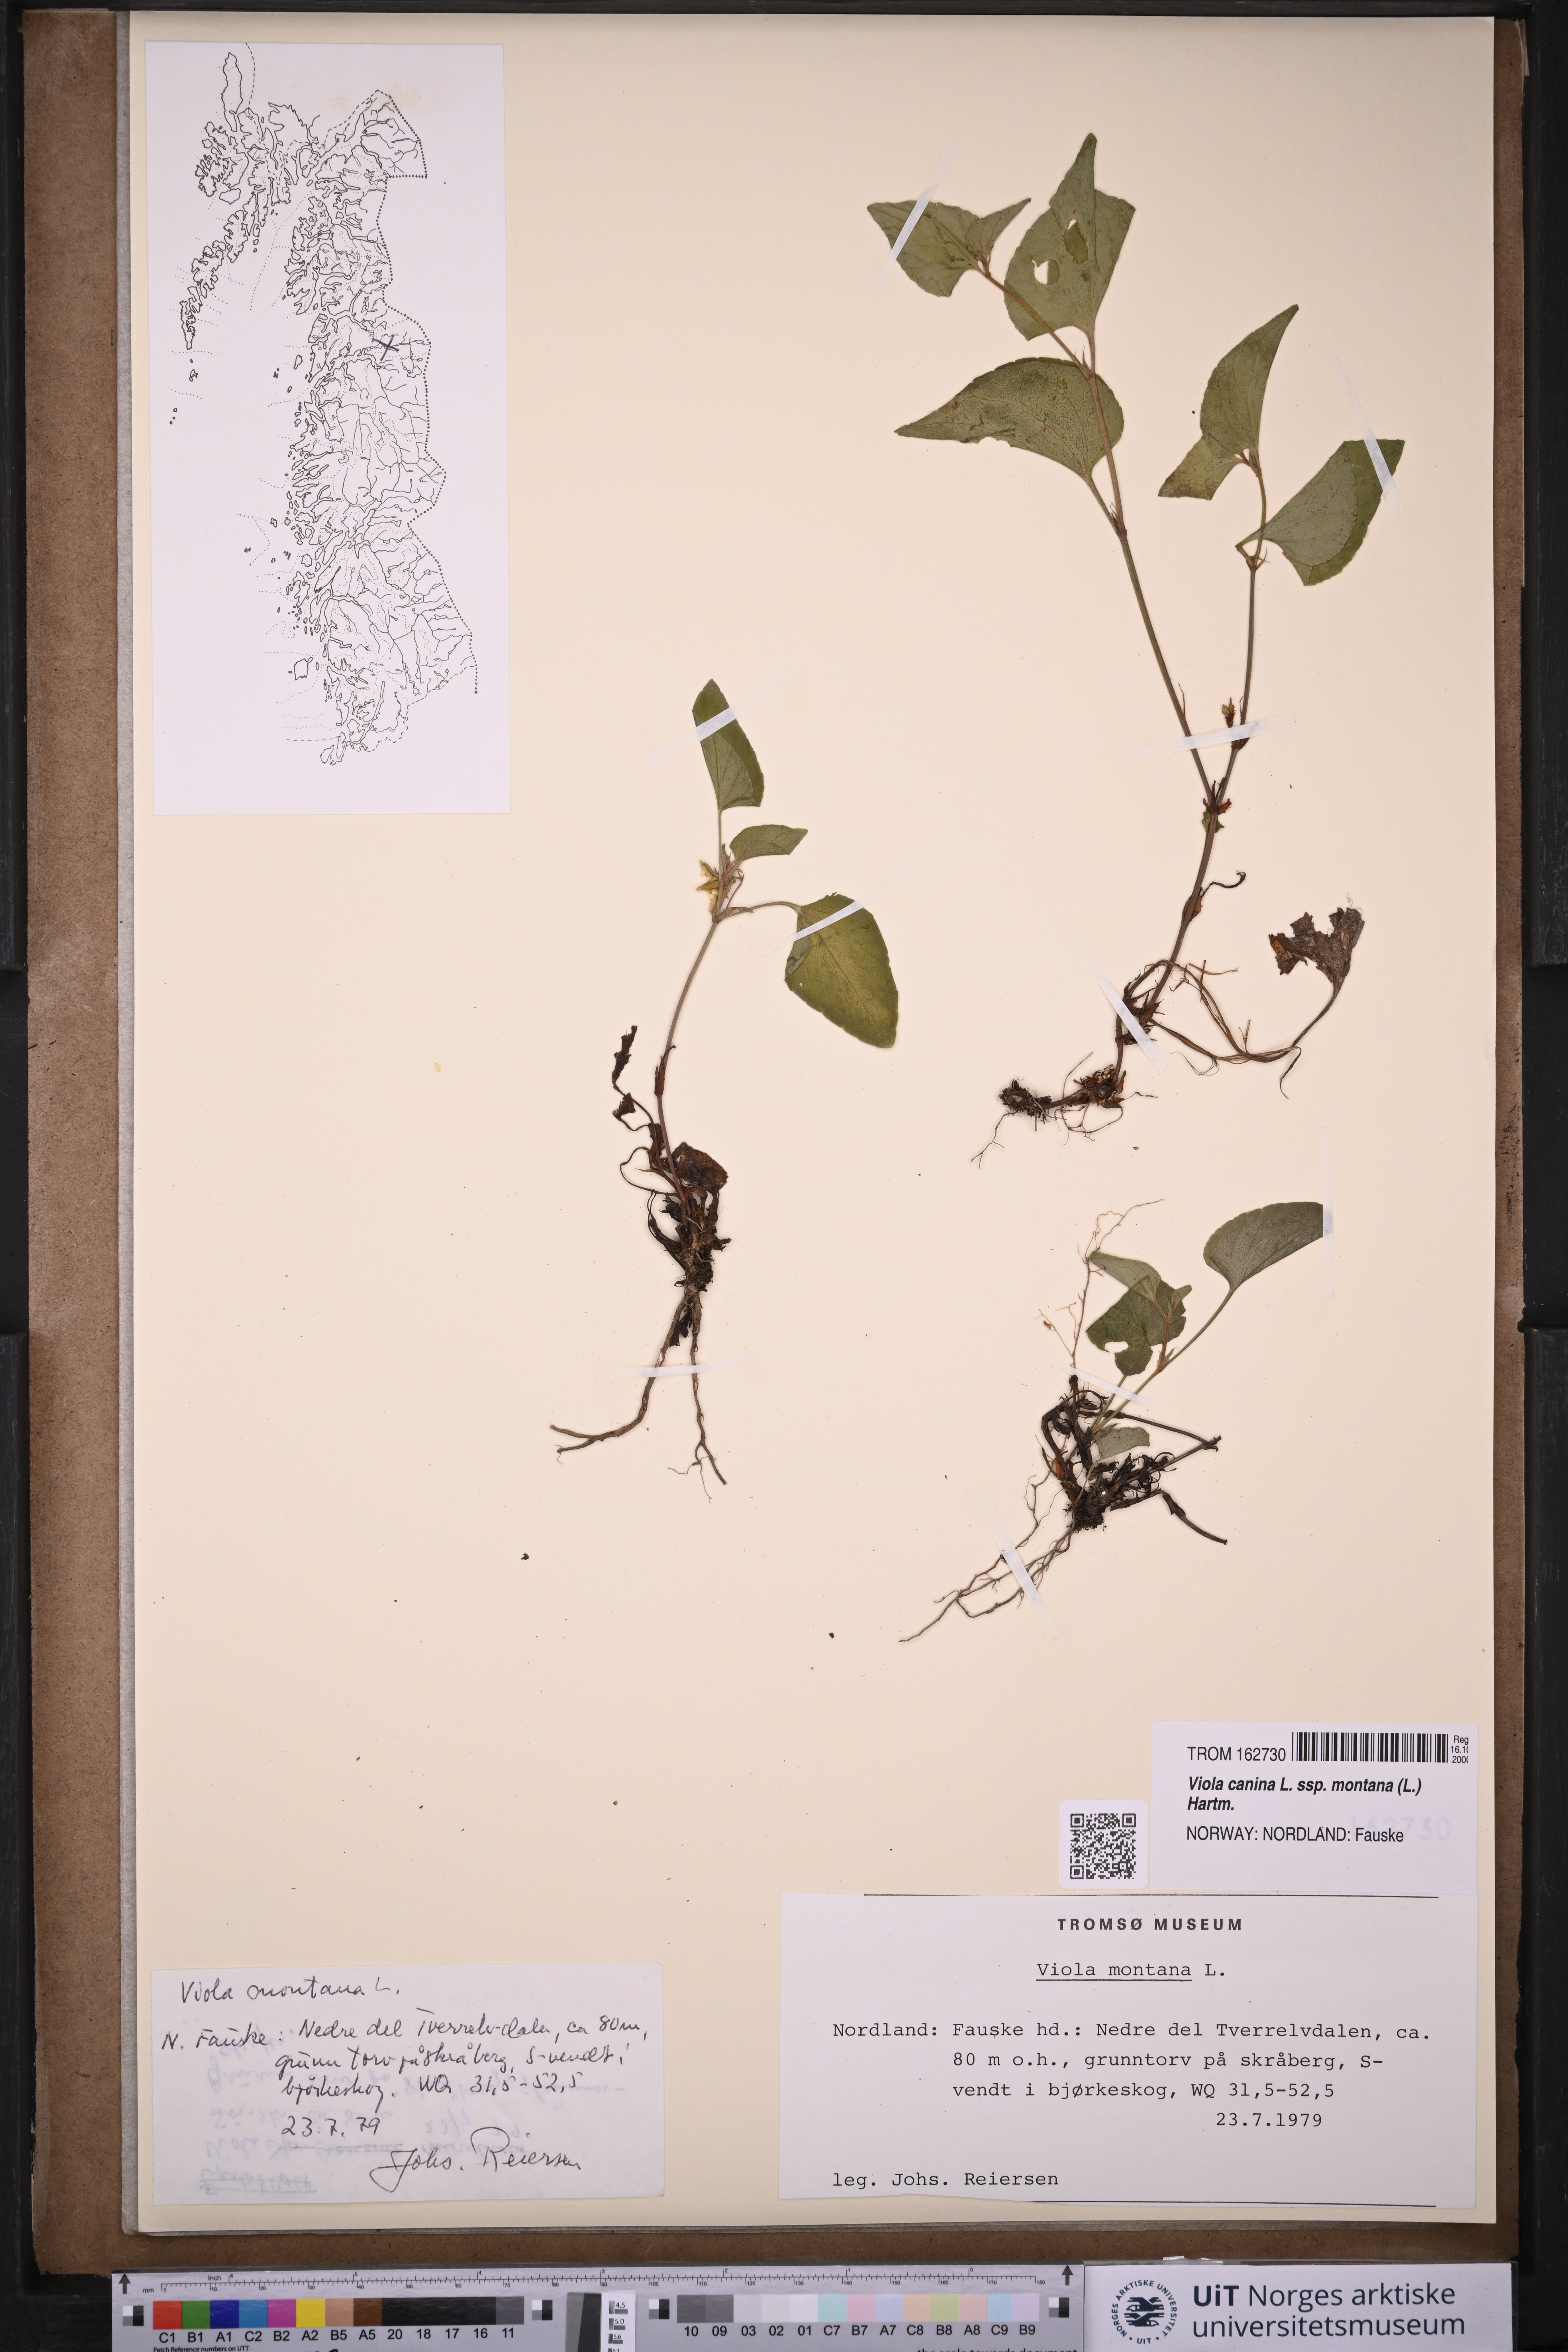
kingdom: Plantae
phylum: Tracheophyta
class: Magnoliopsida
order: Malpighiales
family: Violaceae
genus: Viola
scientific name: Viola ruppii
